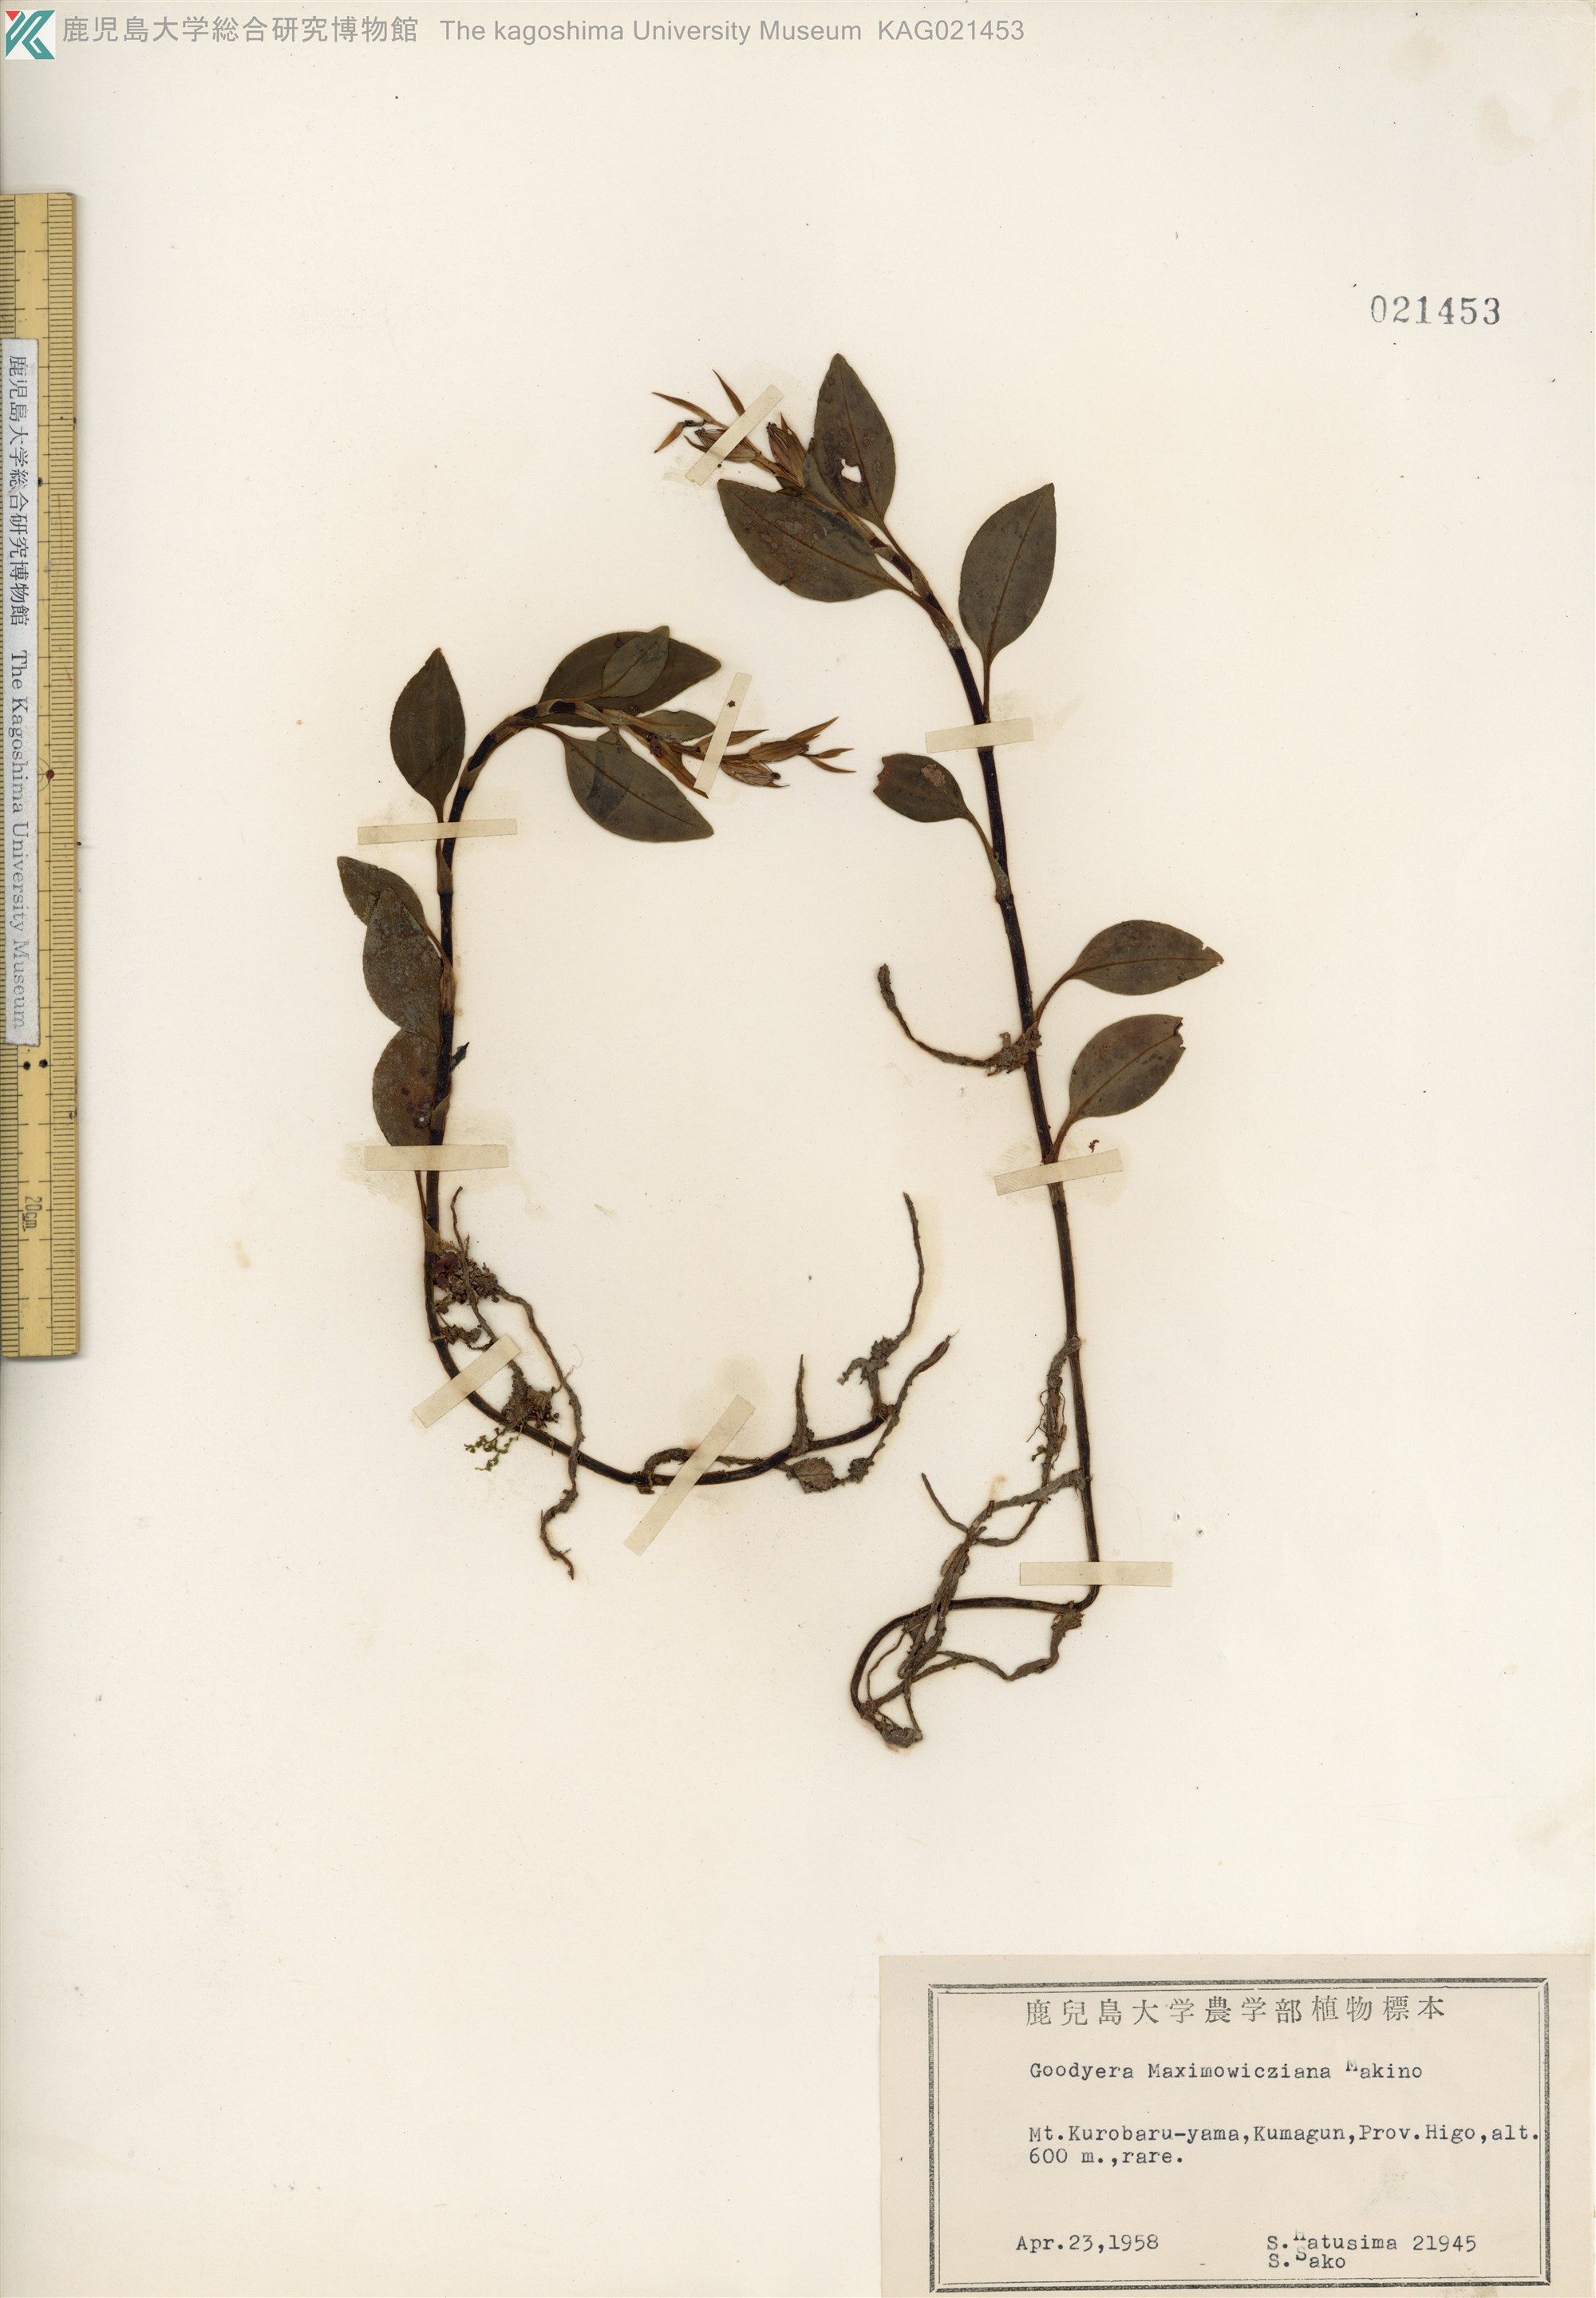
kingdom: Plantae
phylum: Tracheophyta
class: Liliopsida
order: Asparagales
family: Orchidaceae
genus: Goodyera
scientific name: Goodyera henryi
